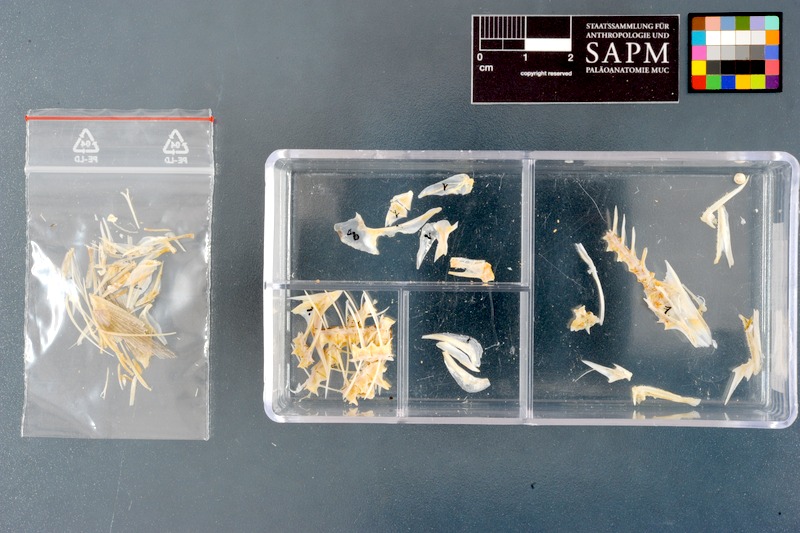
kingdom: Animalia
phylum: Chordata
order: Perciformes
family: Carangidae
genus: Scomberoides
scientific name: Scomberoides
